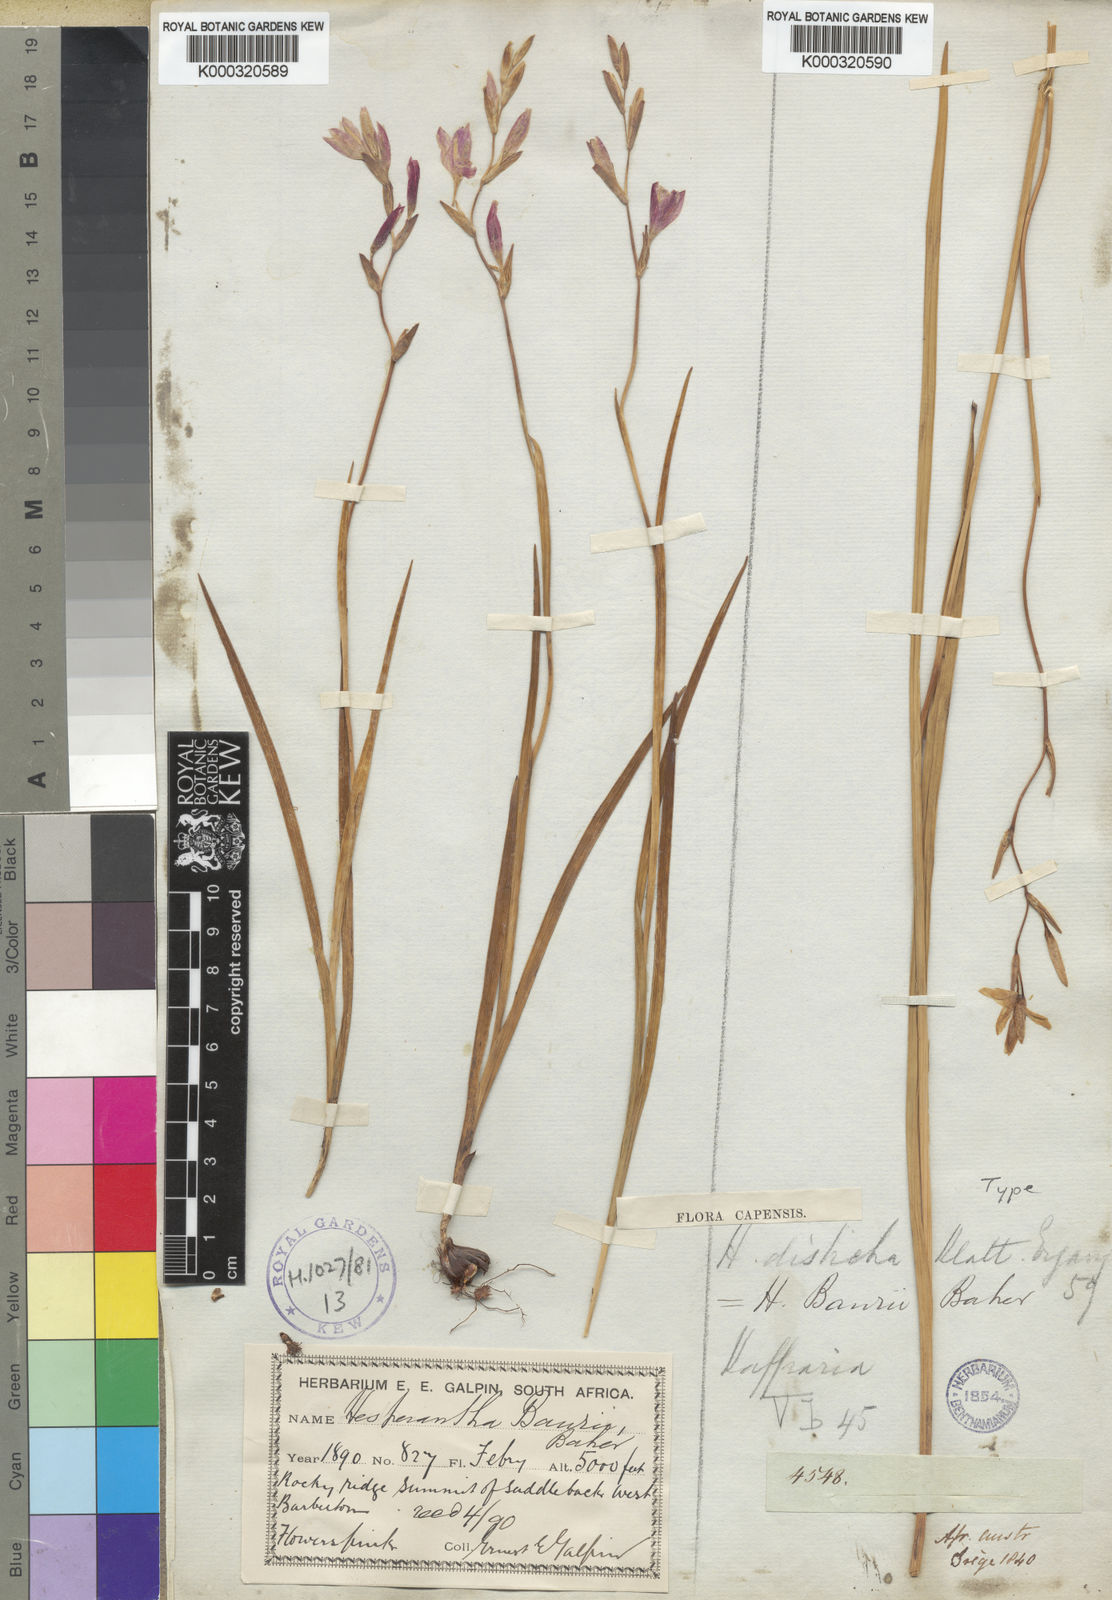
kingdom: Plantae
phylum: Tracheophyta
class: Liliopsida
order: Asparagales
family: Iridaceae
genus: Hesperantha
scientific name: Hesperantha baurii
